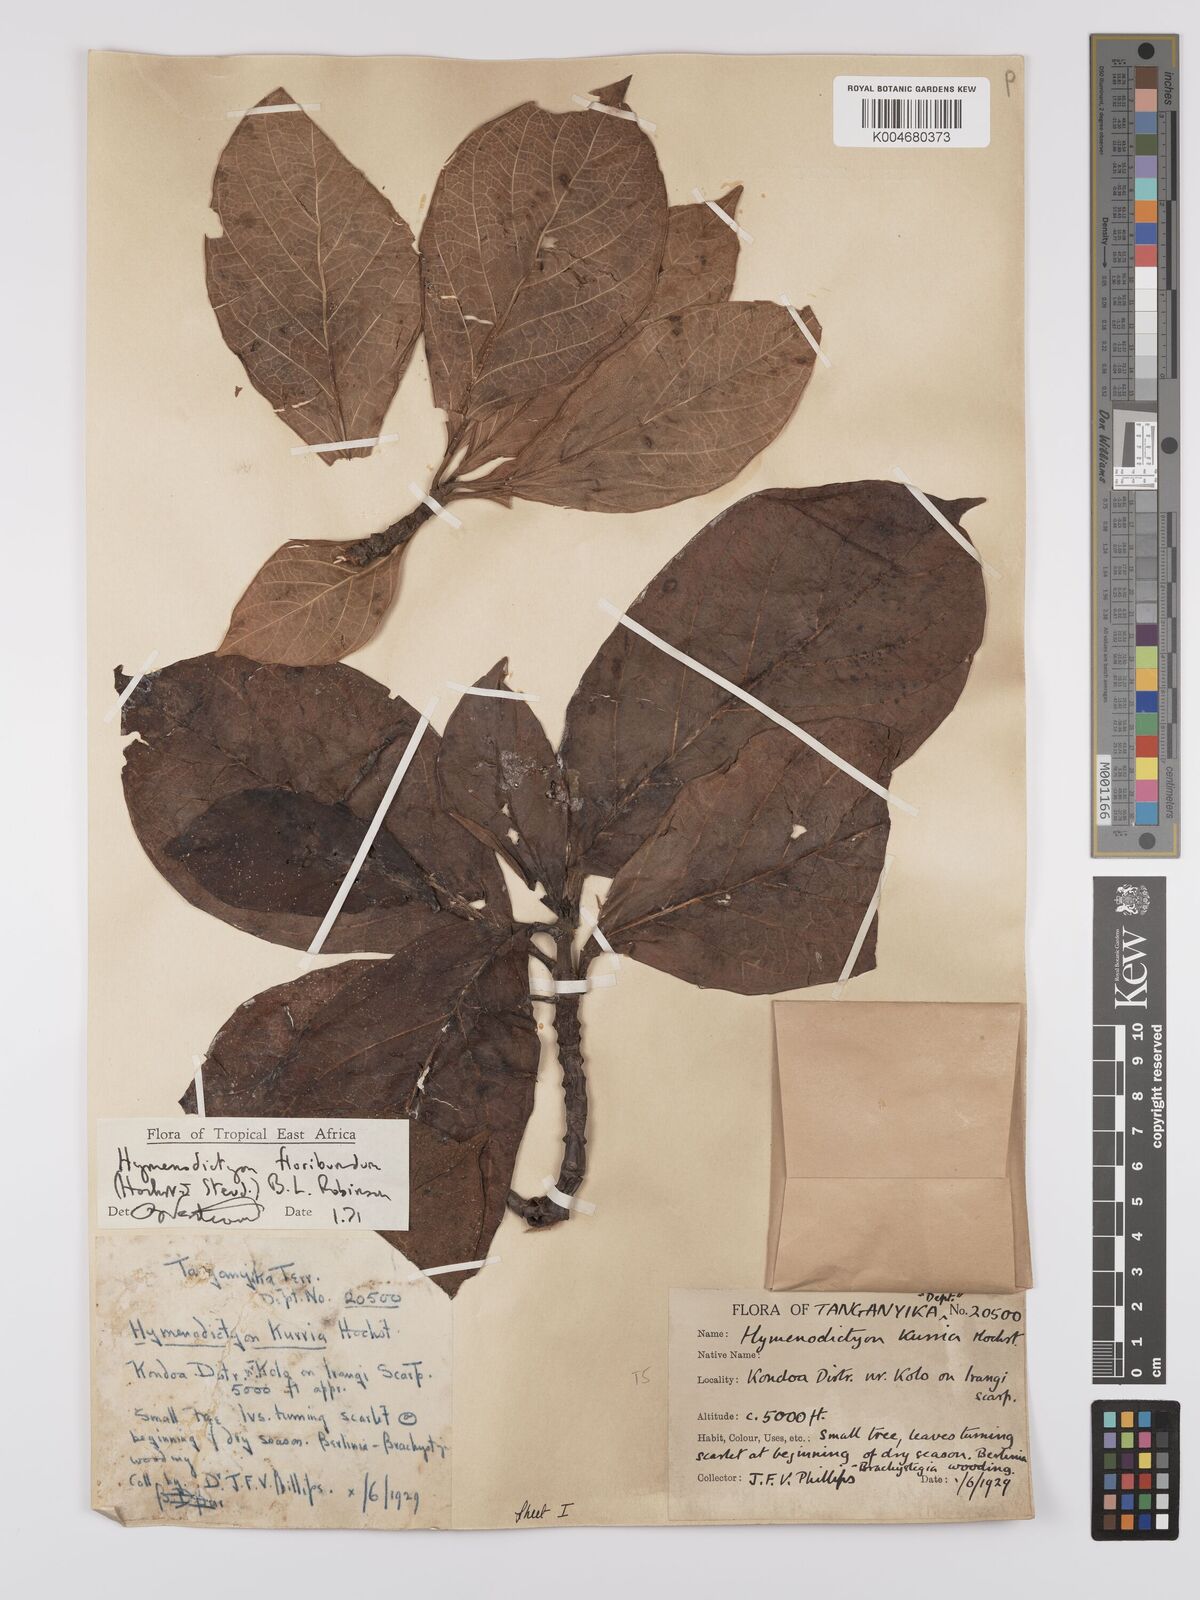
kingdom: Plantae
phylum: Tracheophyta
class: Magnoliopsida
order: Gentianales
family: Rubiaceae
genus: Hymenodictyon
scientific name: Hymenodictyon floribundum
